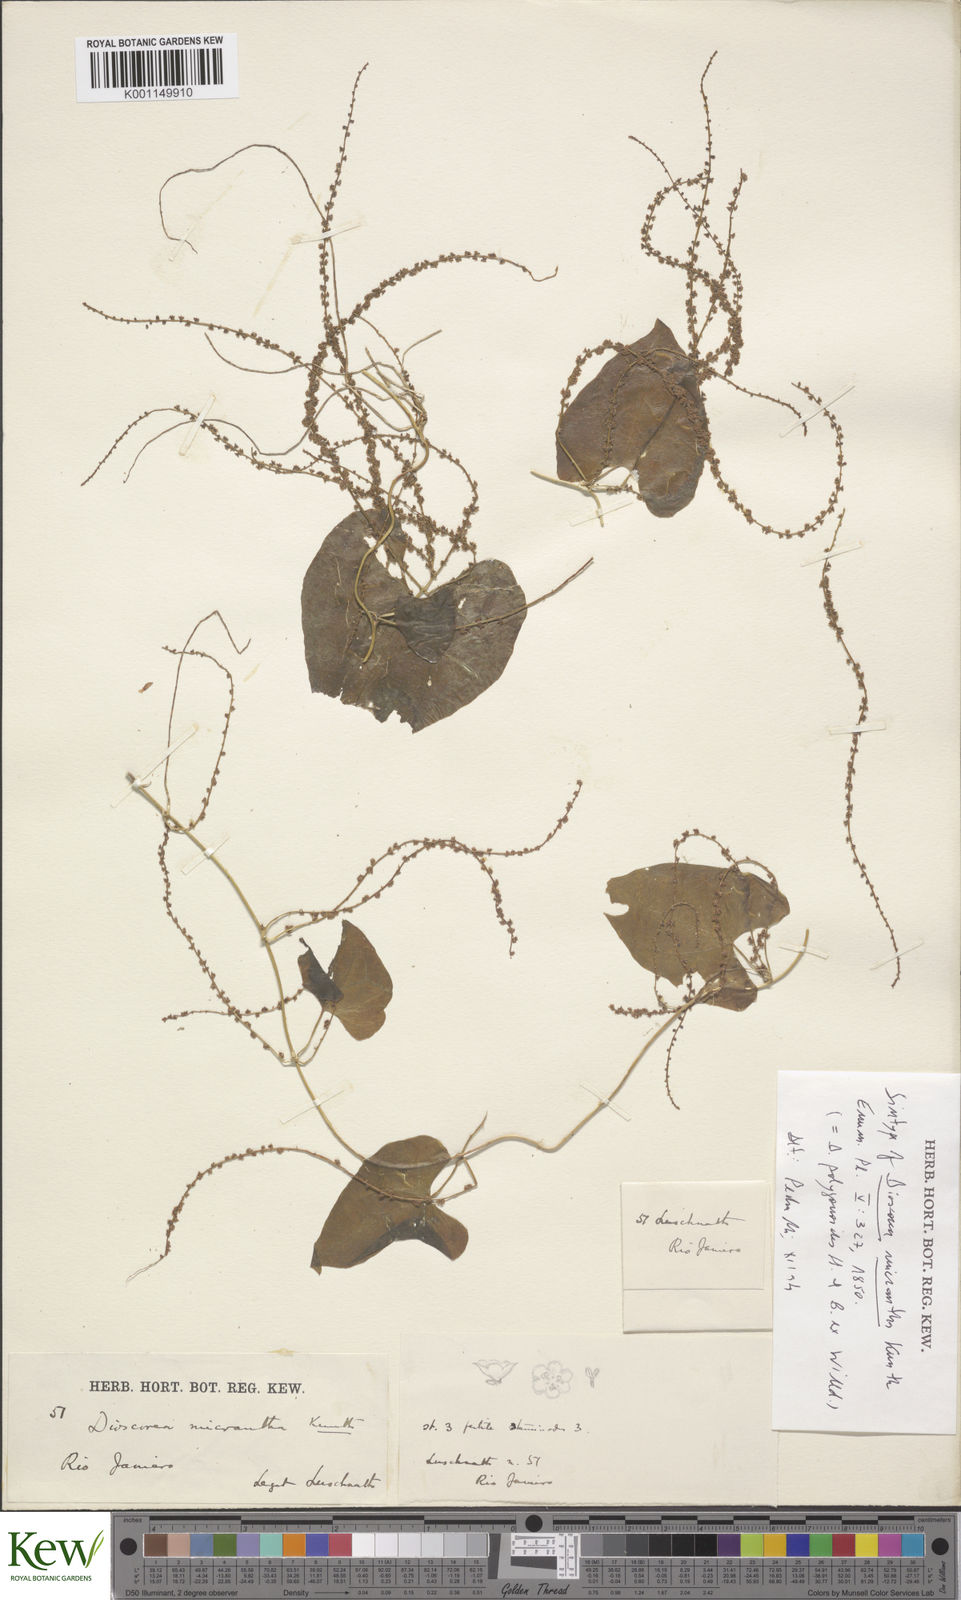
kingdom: Plantae
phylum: Tracheophyta
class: Liliopsida
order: Dioscoreales
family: Dioscoreaceae
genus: Dioscorea
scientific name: Dioscorea martiana
